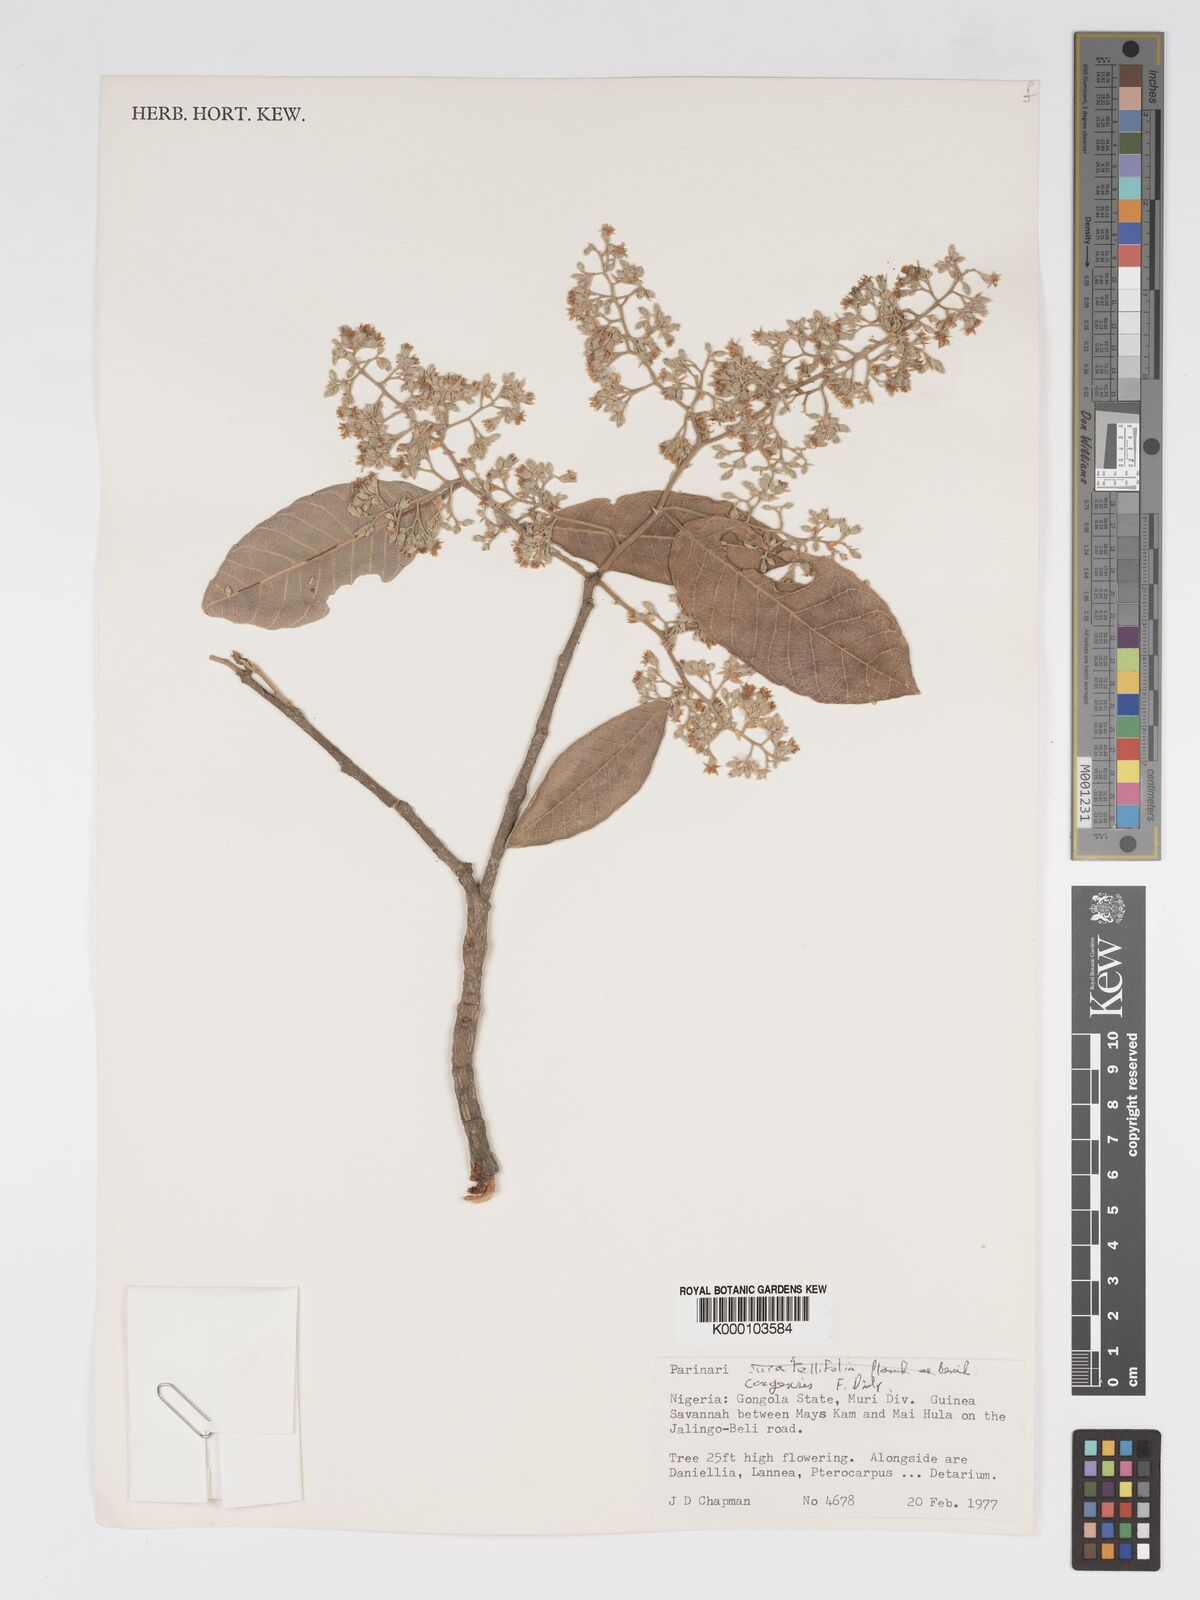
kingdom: Plantae
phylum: Tracheophyta
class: Magnoliopsida
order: Malpighiales
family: Chrysobalanaceae
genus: Parinari
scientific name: Parinari congensis
